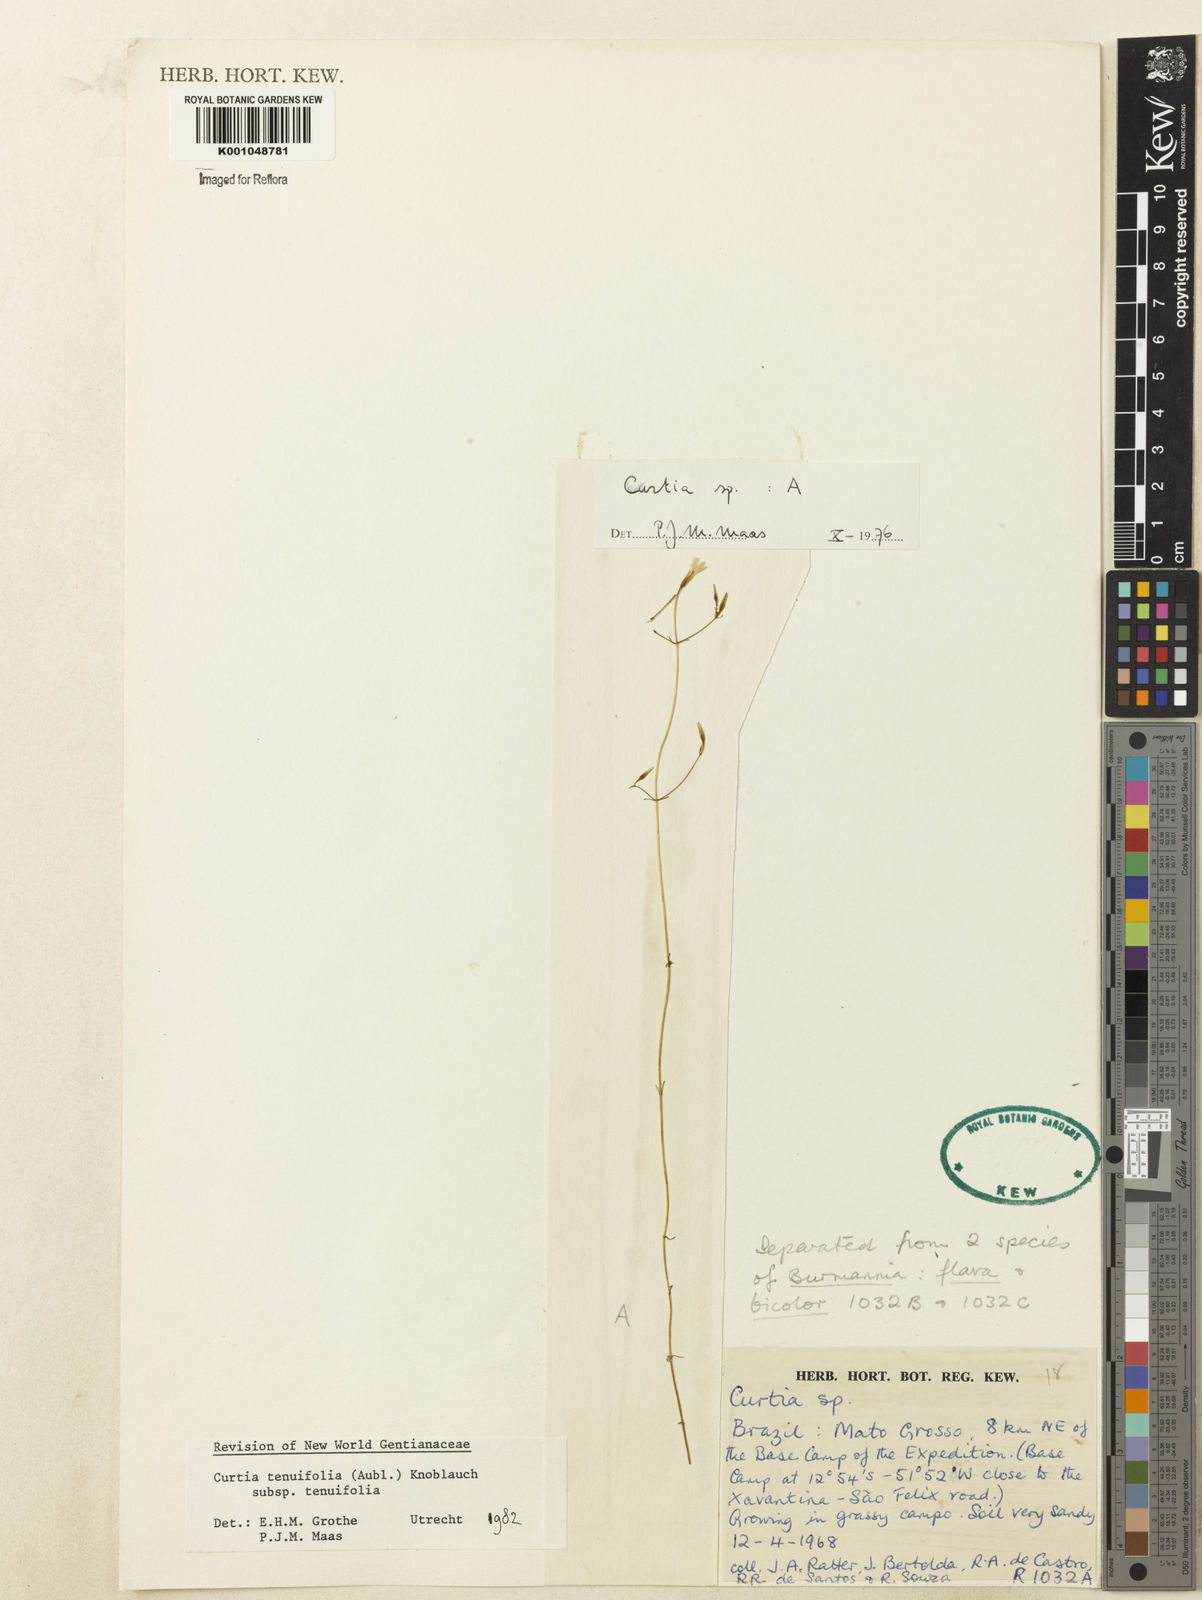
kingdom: Plantae
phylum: Tracheophyta
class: Magnoliopsida
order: Gentianales
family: Gentianaceae
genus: Curtia
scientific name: Curtia tenuifolia
